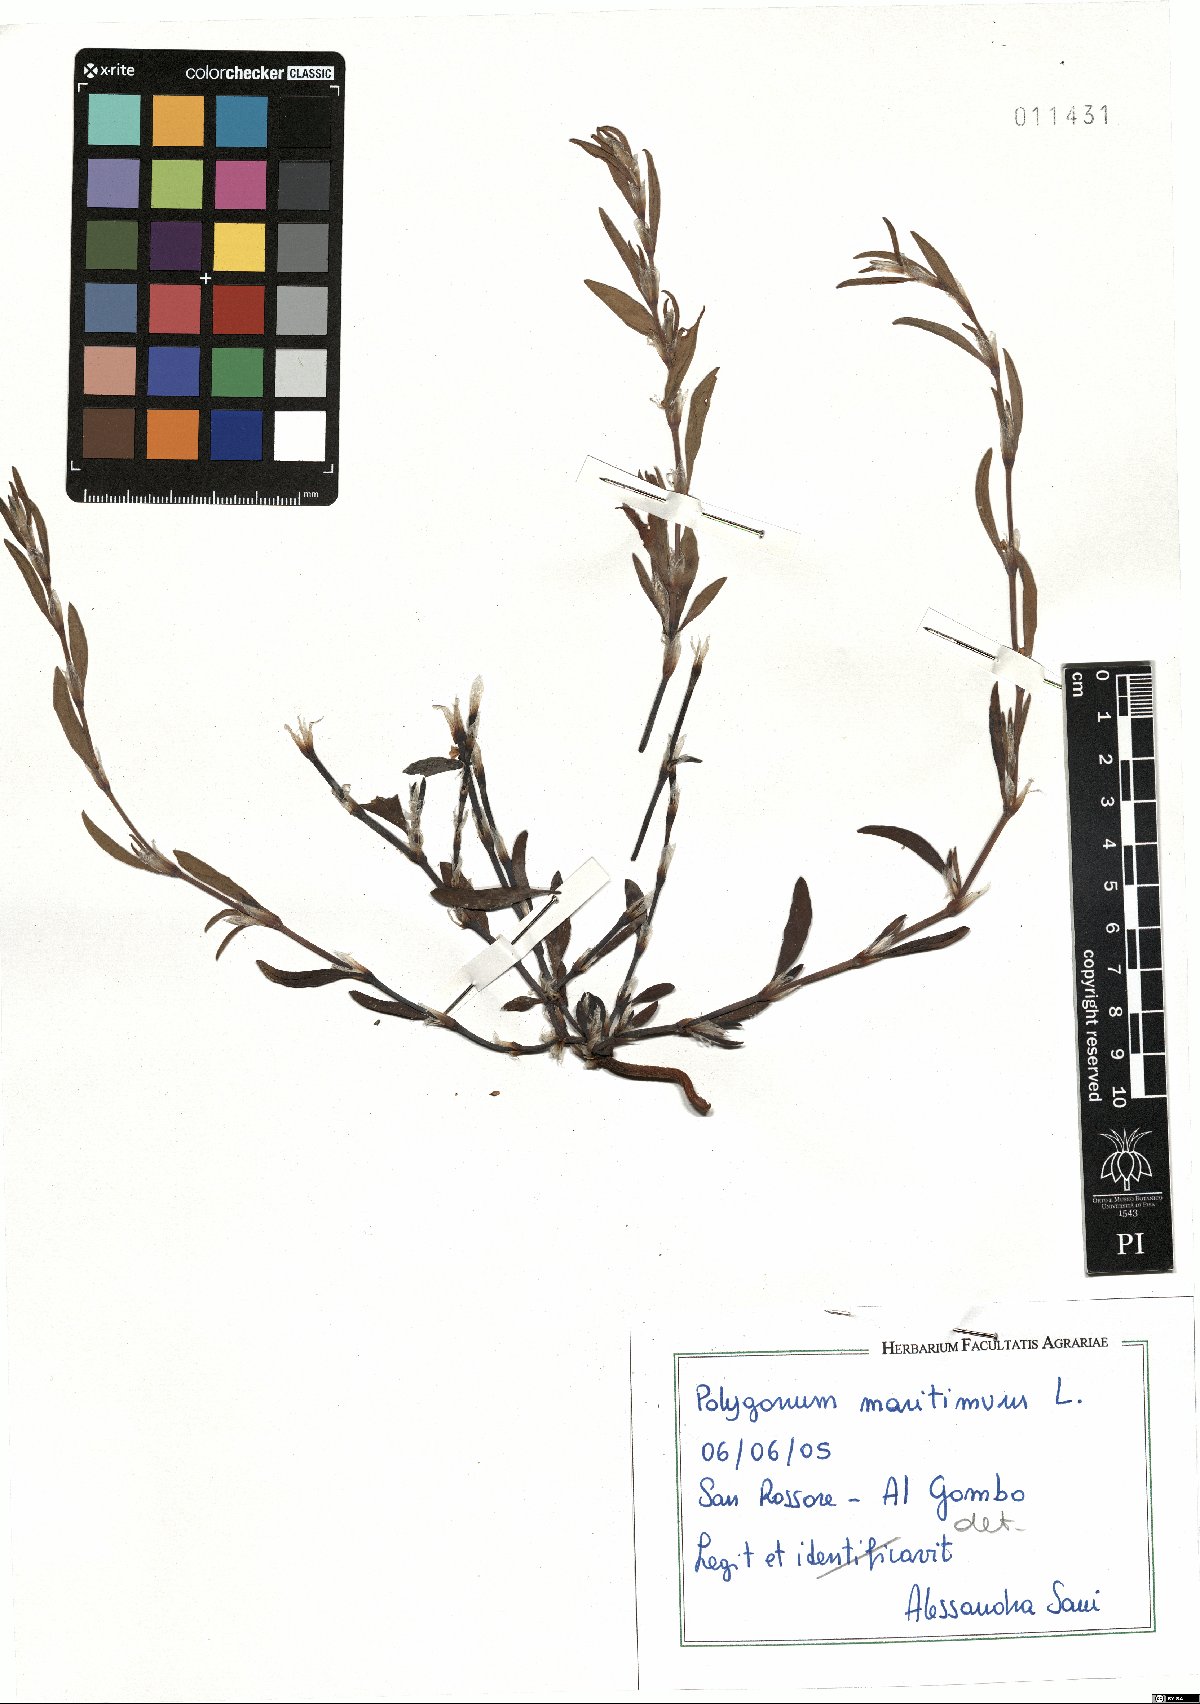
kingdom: Plantae
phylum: Tracheophyta
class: Magnoliopsida
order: Caryophyllales
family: Polygonaceae
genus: Polygonum
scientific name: Polygonum maritimum
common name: Sea knotgrass
